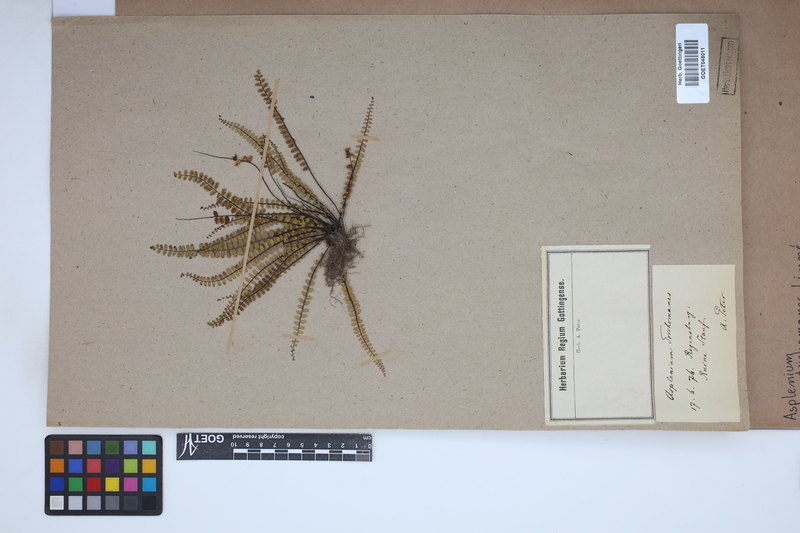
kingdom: Plantae
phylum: Tracheophyta
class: Polypodiopsida
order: Polypodiales
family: Aspleniaceae
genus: Asplenium
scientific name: Asplenium trichomanes
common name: Maidenhair spleenwort
